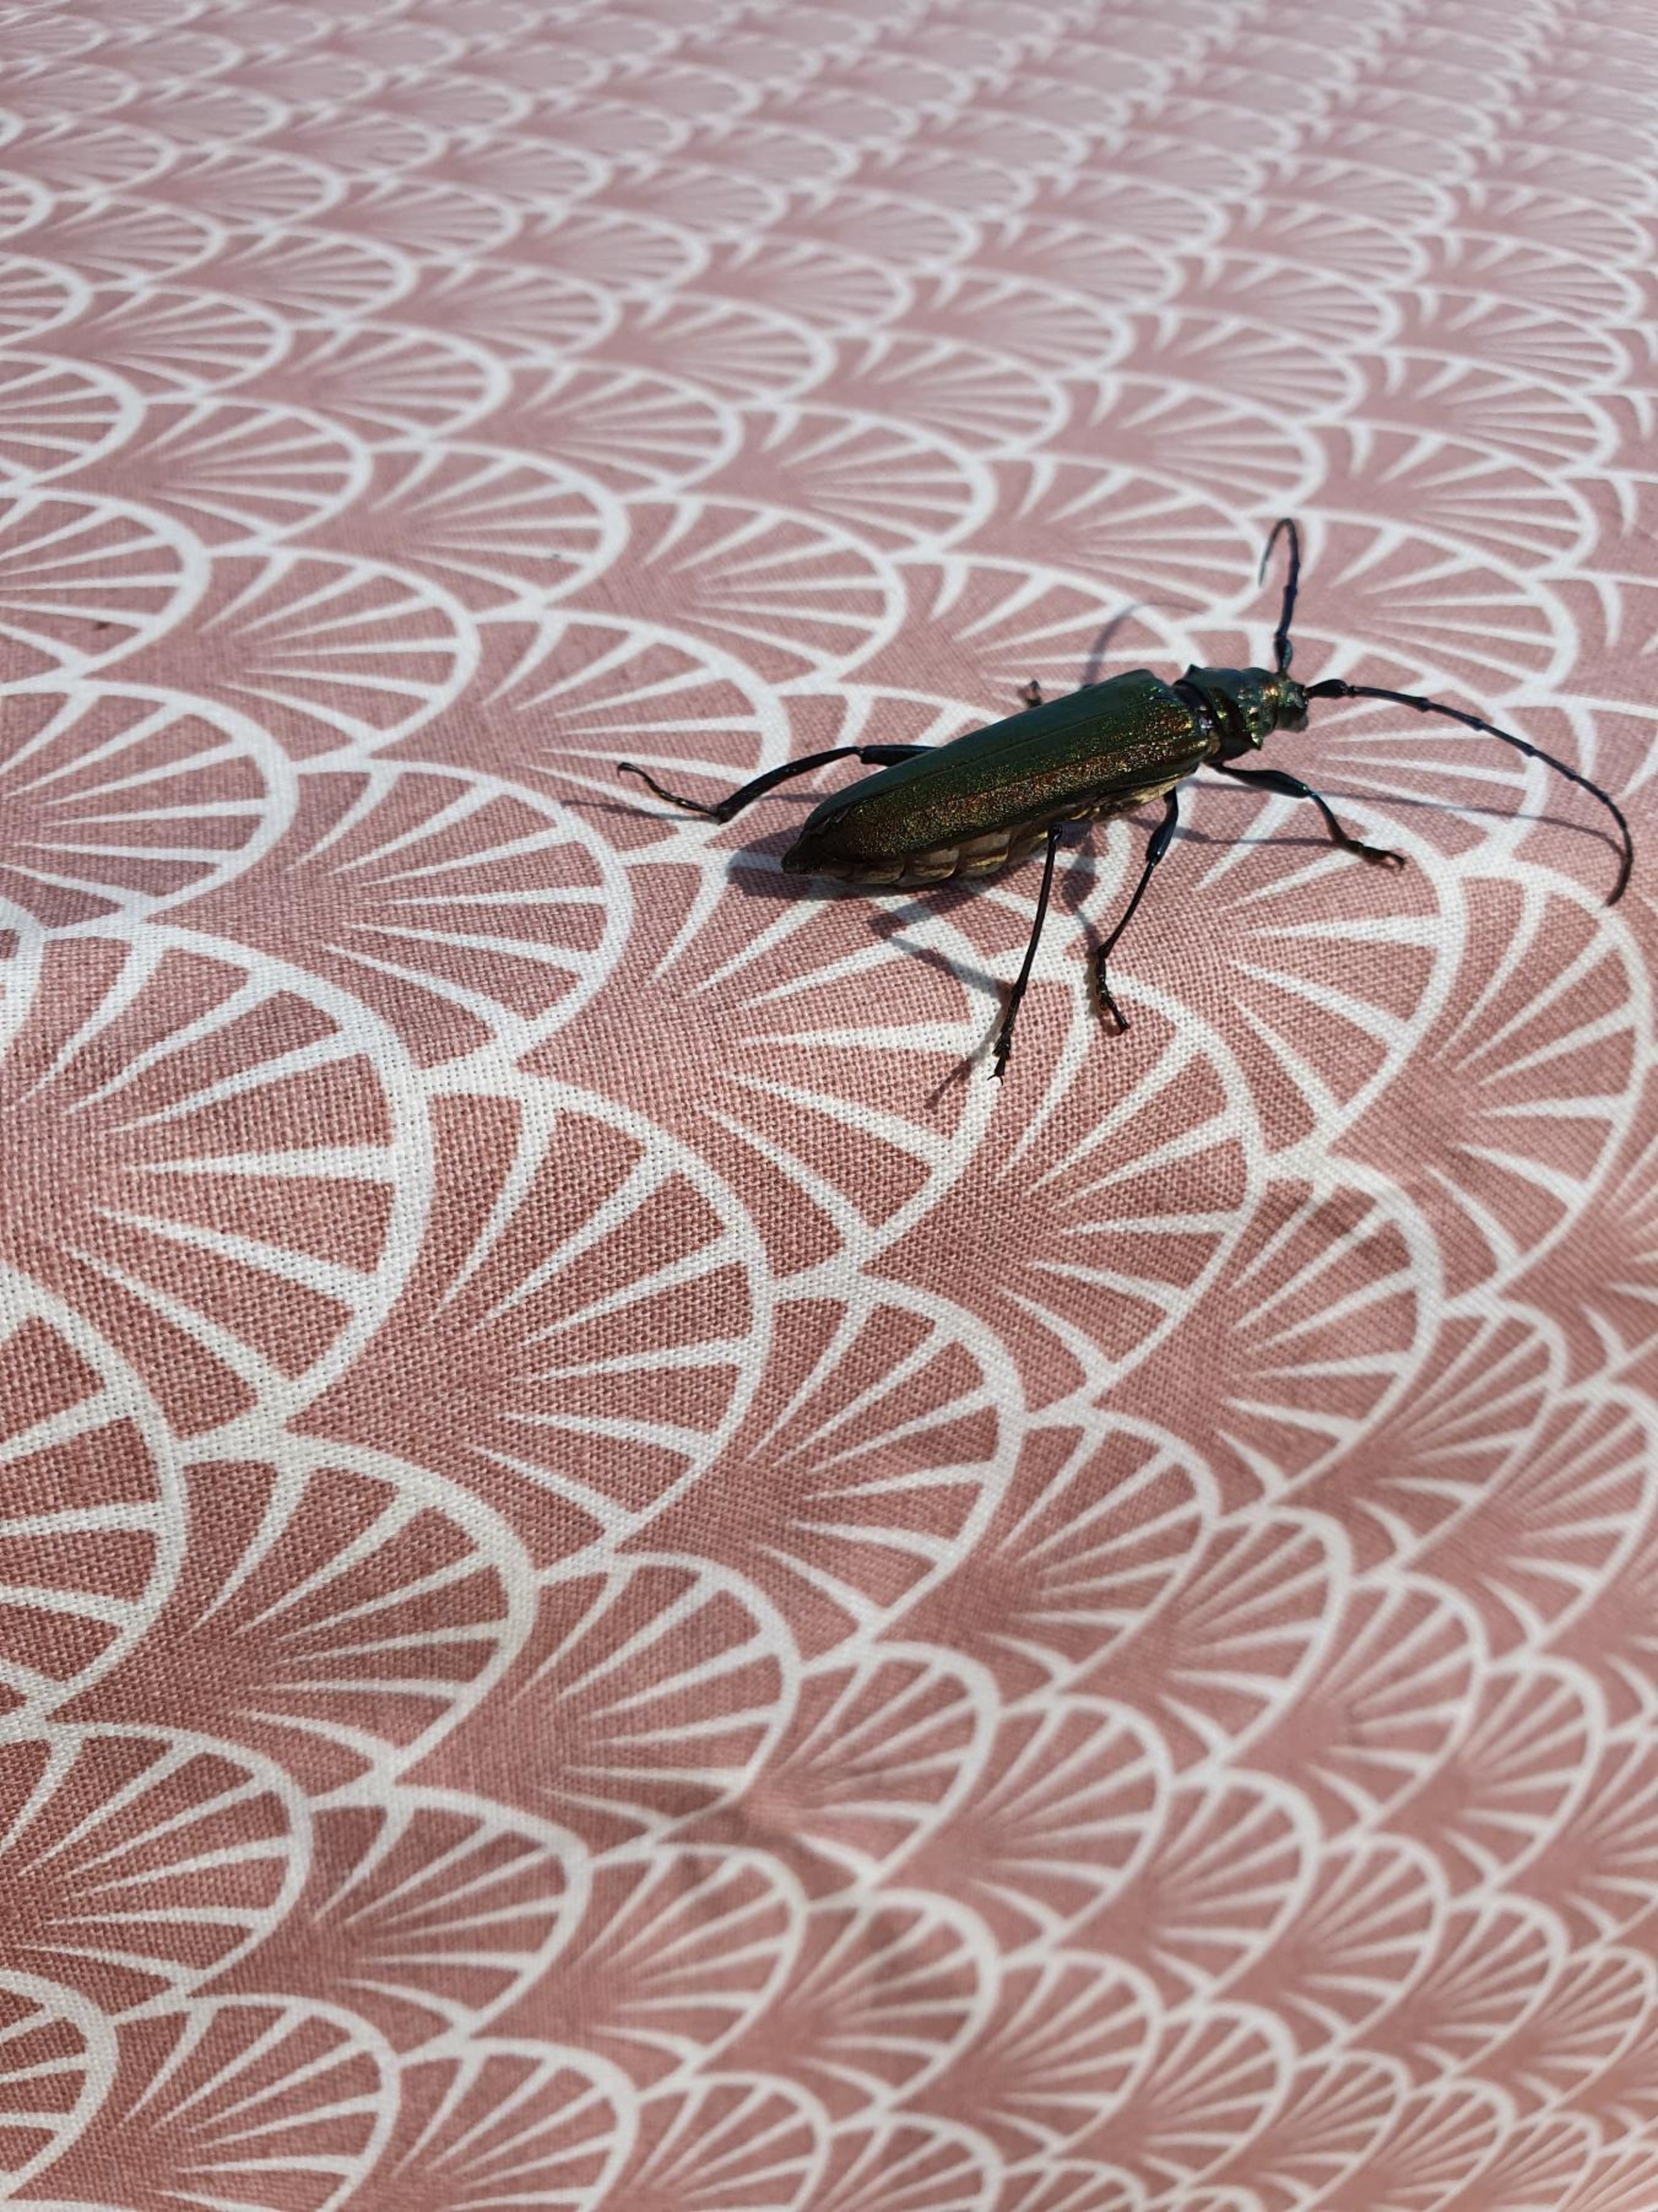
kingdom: Animalia
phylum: Arthropoda
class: Insecta
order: Coleoptera
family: Cerambycidae
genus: Aromia
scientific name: Aromia moschata
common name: Moskusbuk
